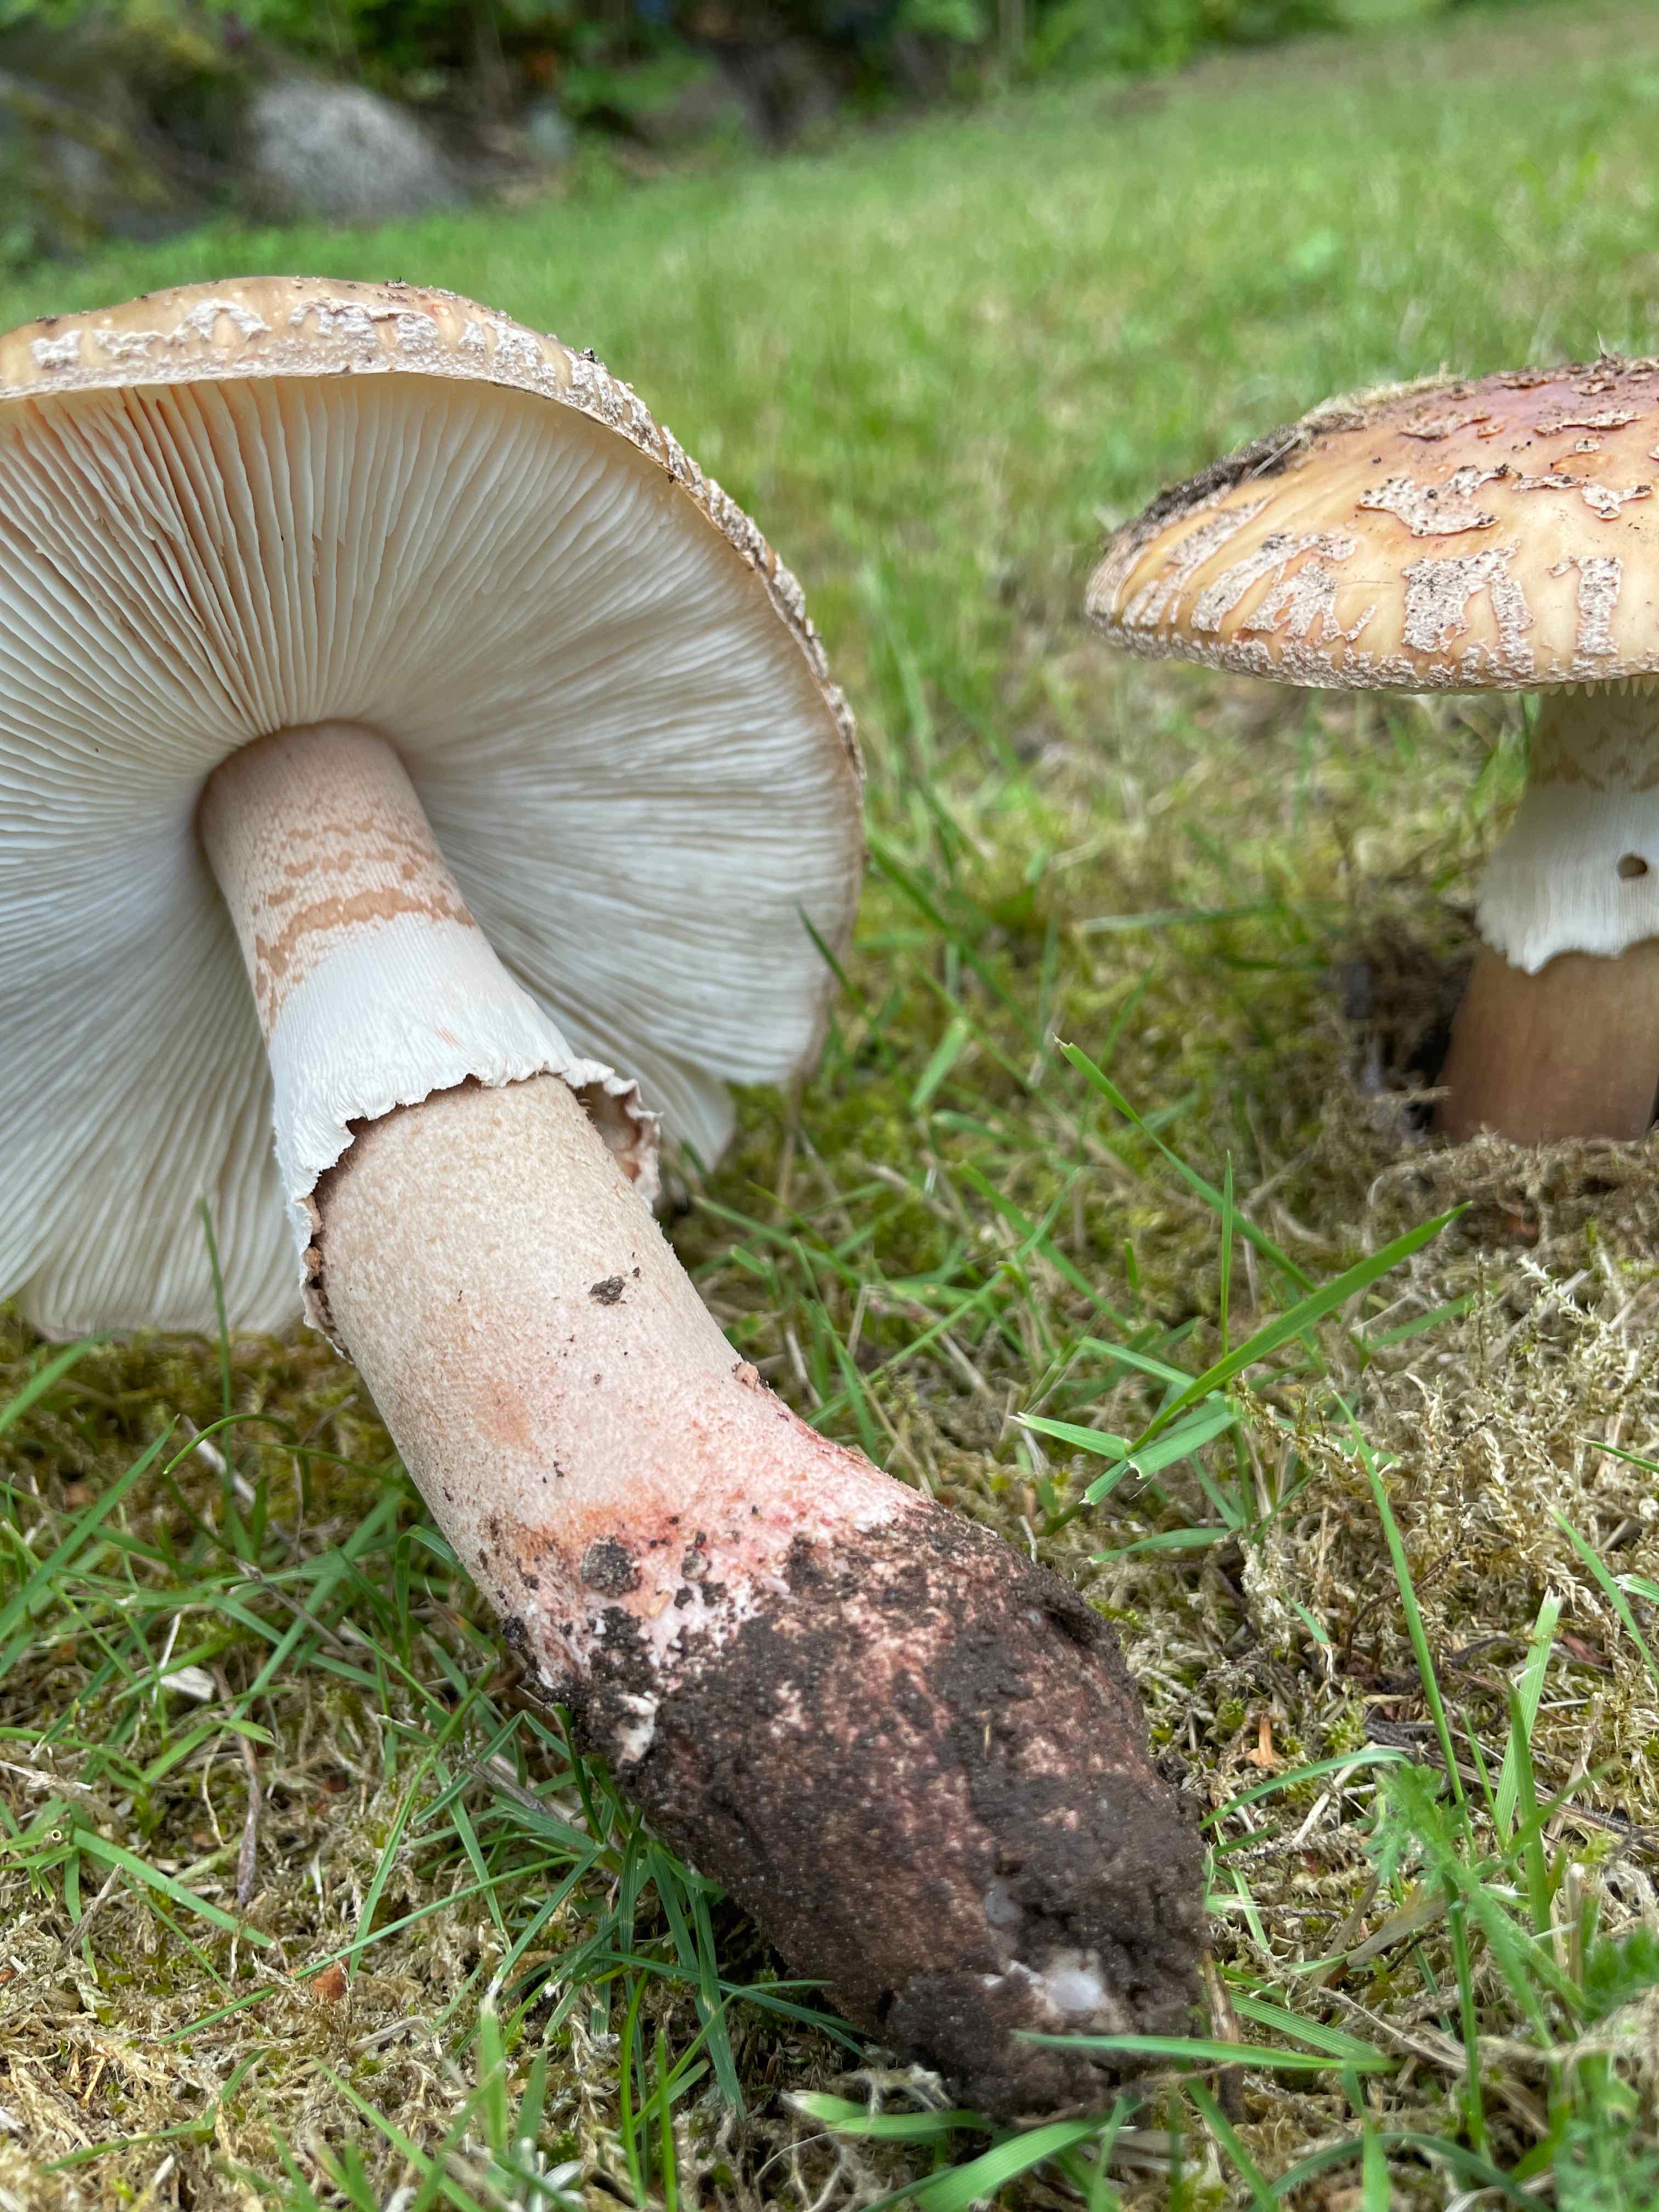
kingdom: Fungi
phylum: Basidiomycota
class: Agaricomycetes
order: Agaricales
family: Amanitaceae
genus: Amanita
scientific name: Amanita rubescens
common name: rødmende fluesvamp
